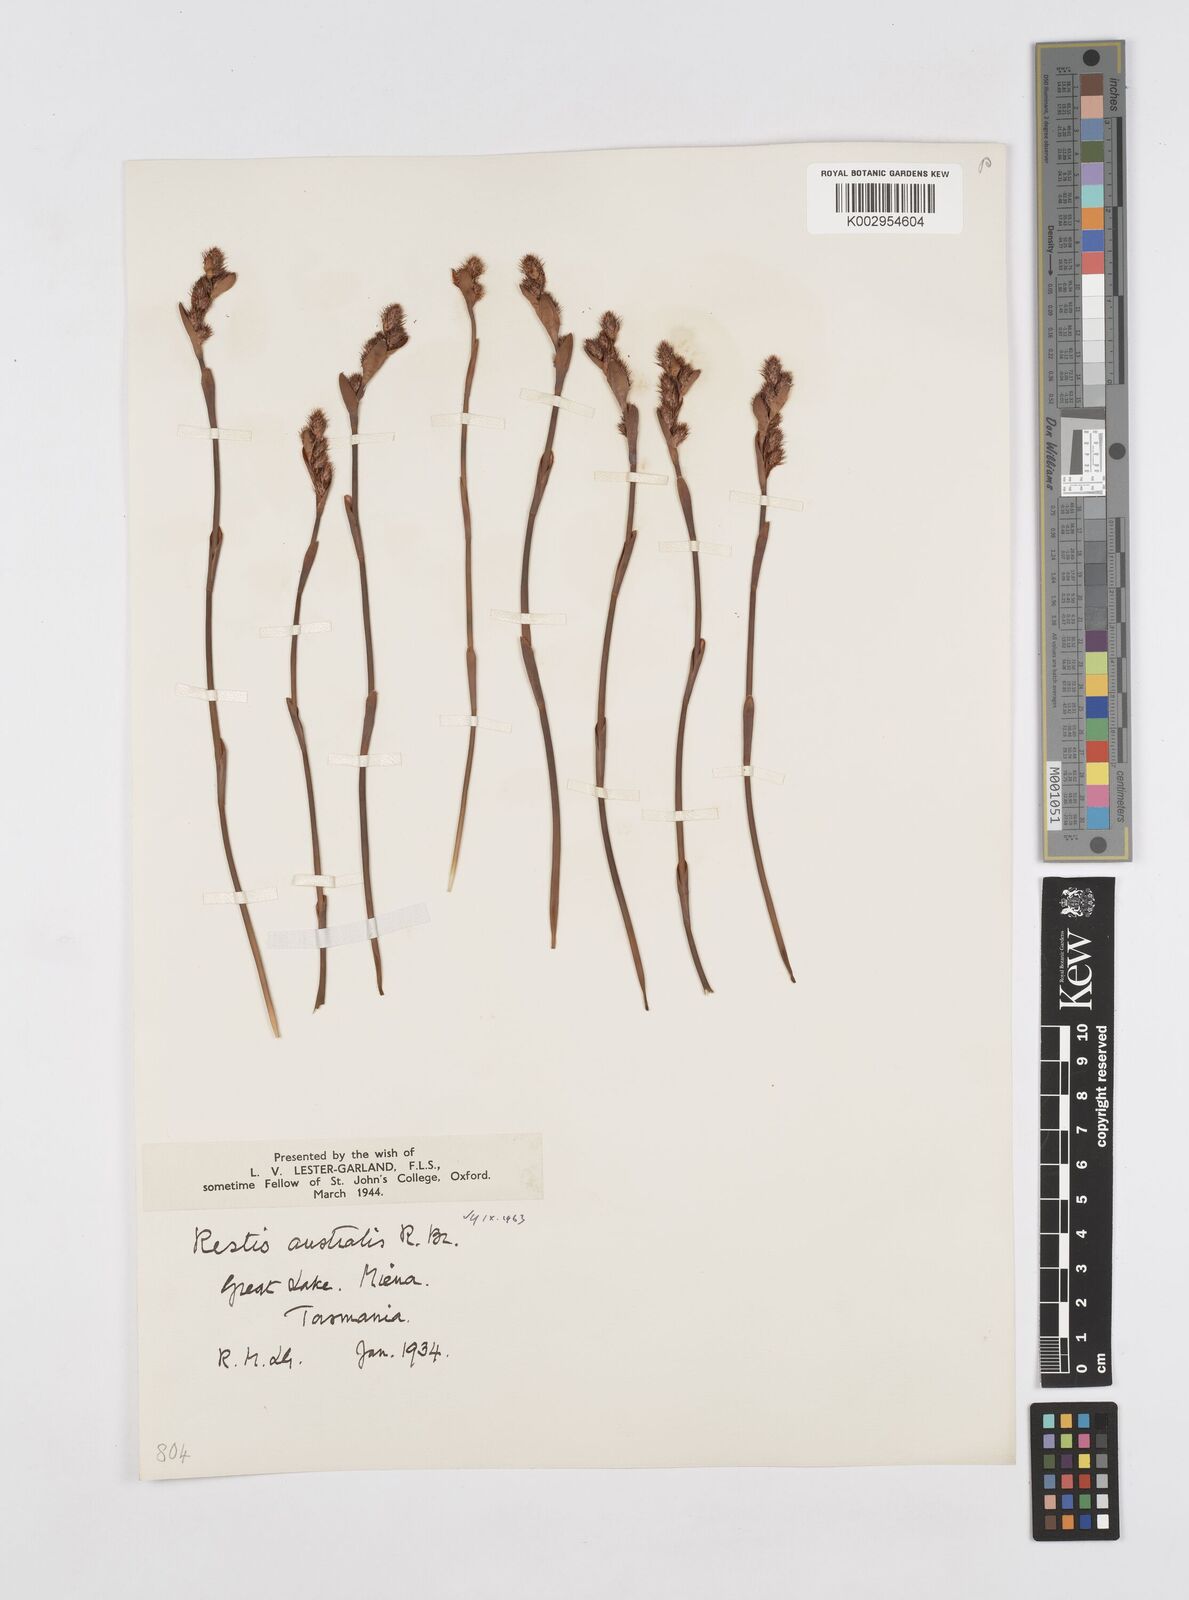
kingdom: Plantae
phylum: Tracheophyta
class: Liliopsida
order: Poales
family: Restionaceae
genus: Baloskion
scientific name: Baloskion australe
